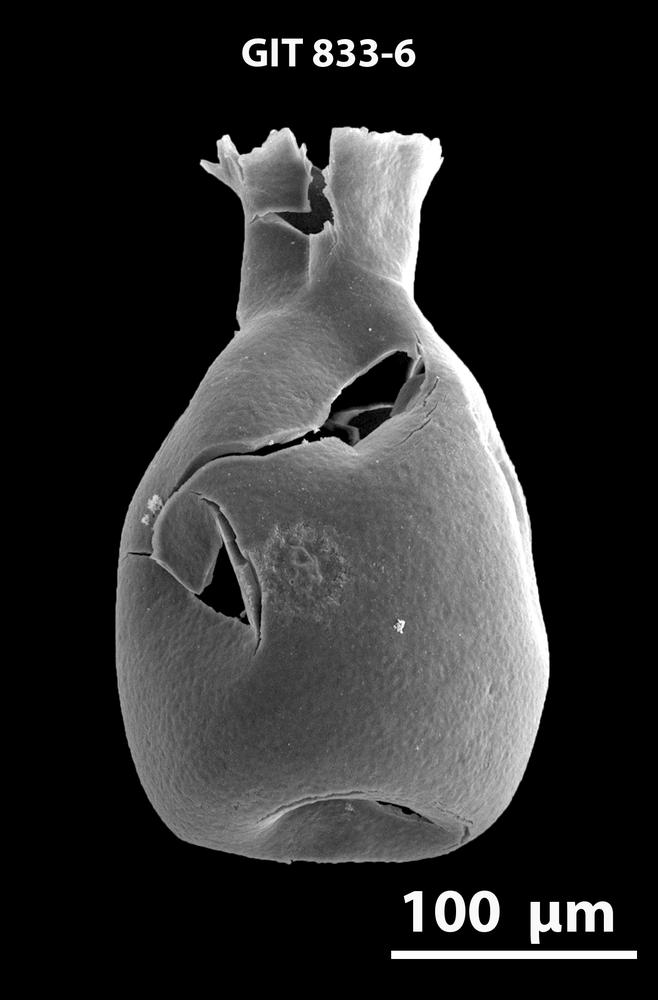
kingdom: Animalia
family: Lagenochitinidae
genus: Lagenochitina
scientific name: Lagenochitina
